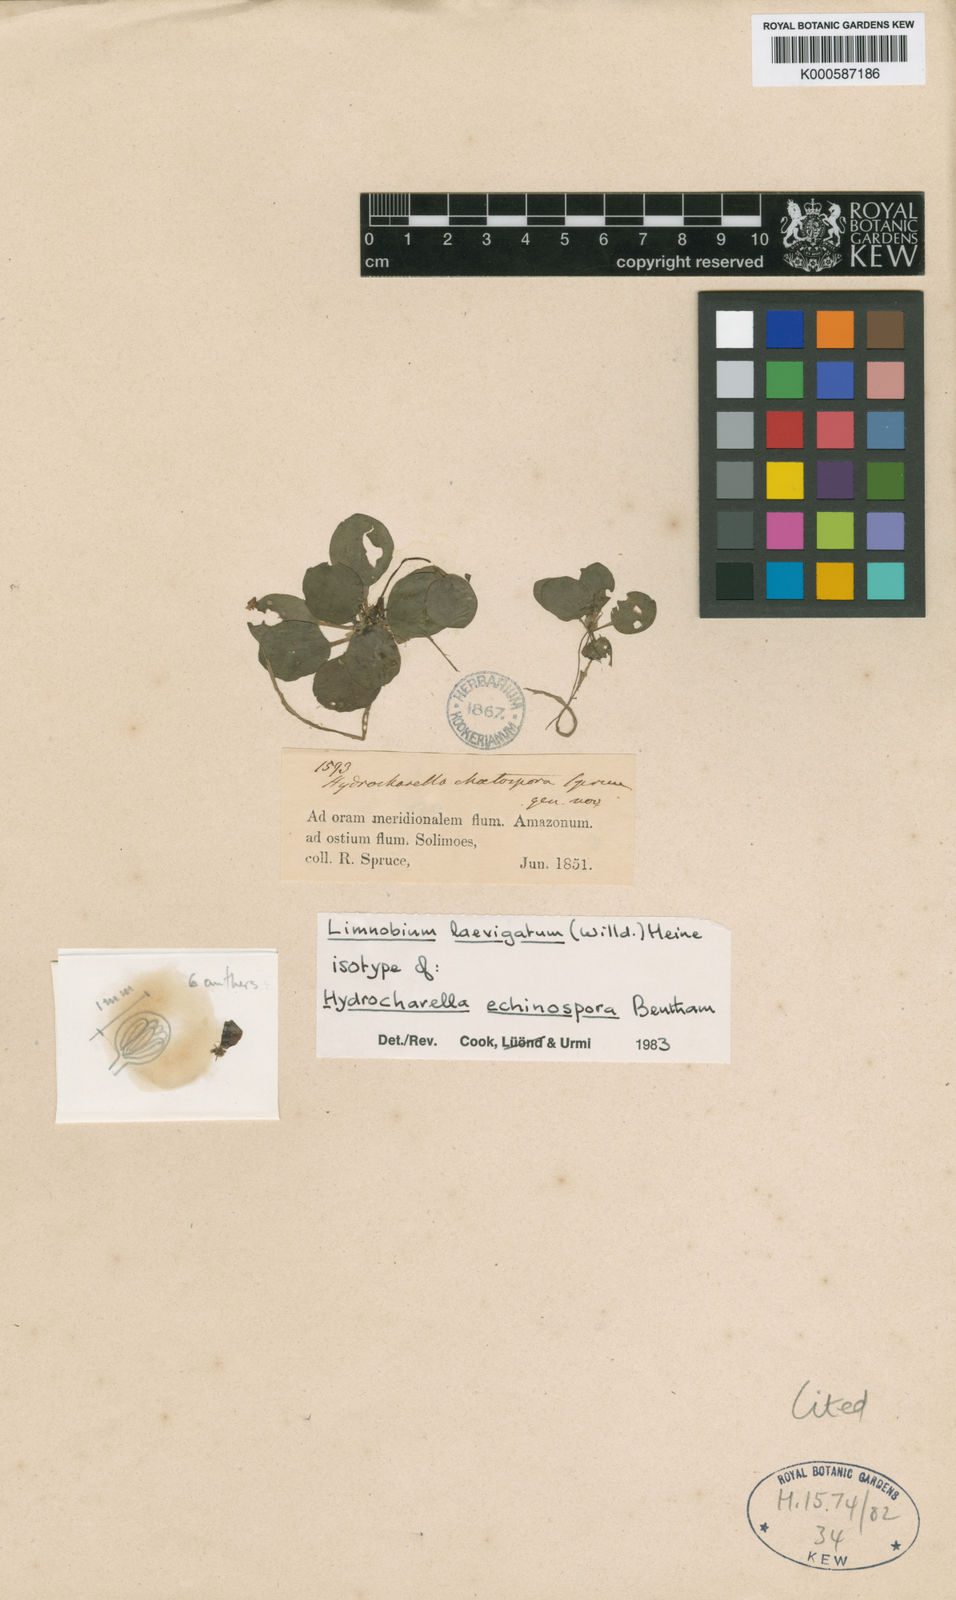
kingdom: Plantae
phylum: Tracheophyta
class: Liliopsida
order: Alismatales
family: Hydrocharitaceae
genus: Hydrocharis
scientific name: Hydrocharis laevigata
